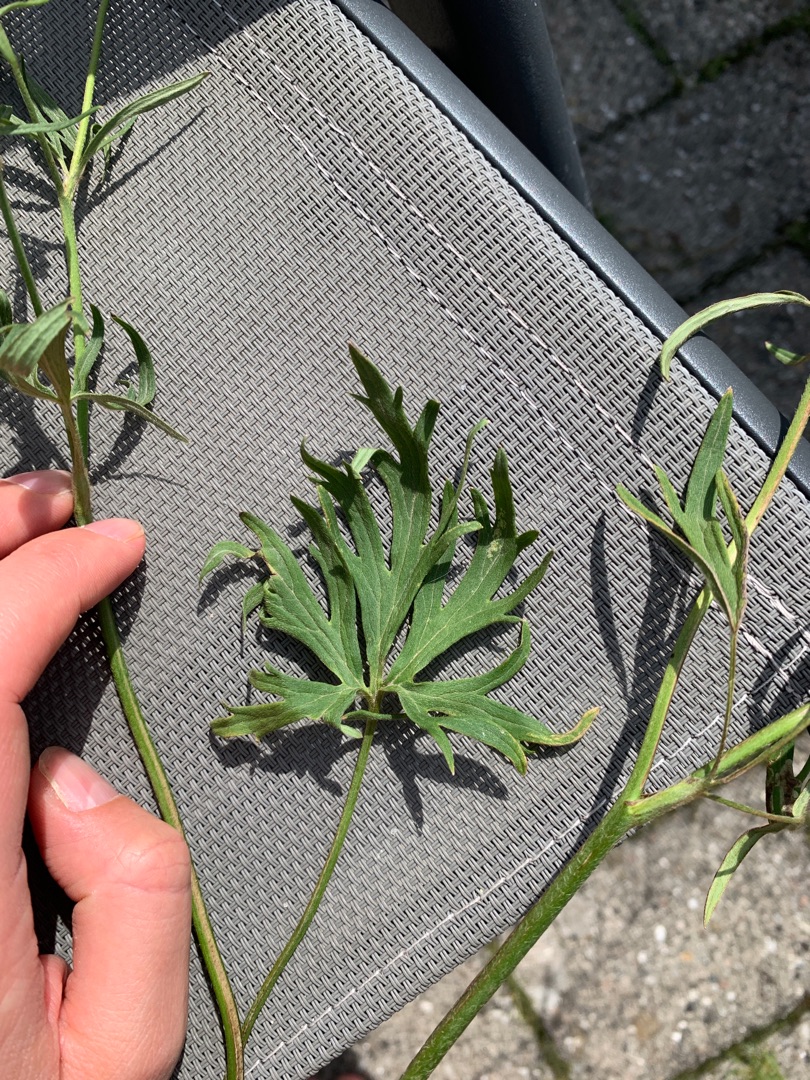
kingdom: Plantae
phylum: Tracheophyta
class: Magnoliopsida
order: Ranunculales
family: Ranunculaceae
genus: Ranunculus
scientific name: Ranunculus acris
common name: Bidende ranunkel
